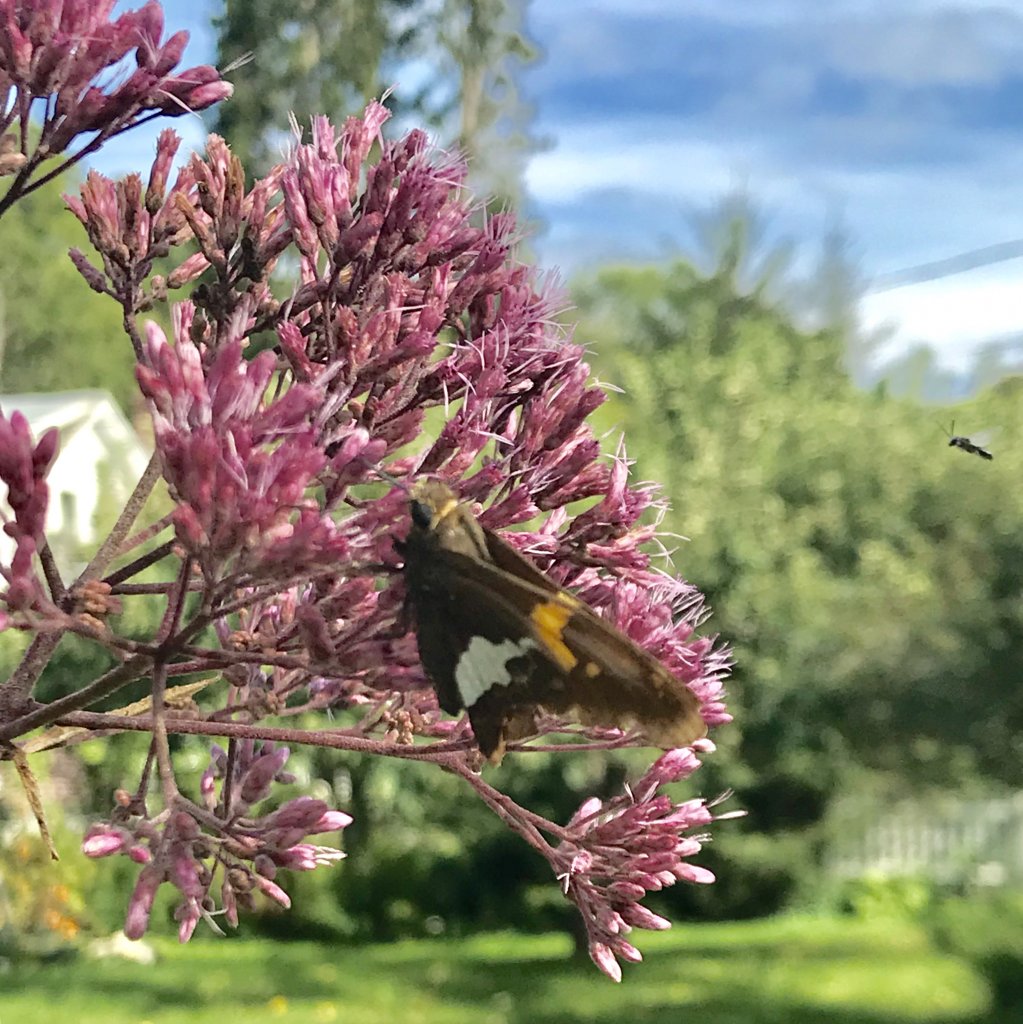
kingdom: Animalia
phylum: Arthropoda
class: Insecta
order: Lepidoptera
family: Hesperiidae
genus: Epargyreus
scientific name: Epargyreus clarus
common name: Silver-spotted Skipper
